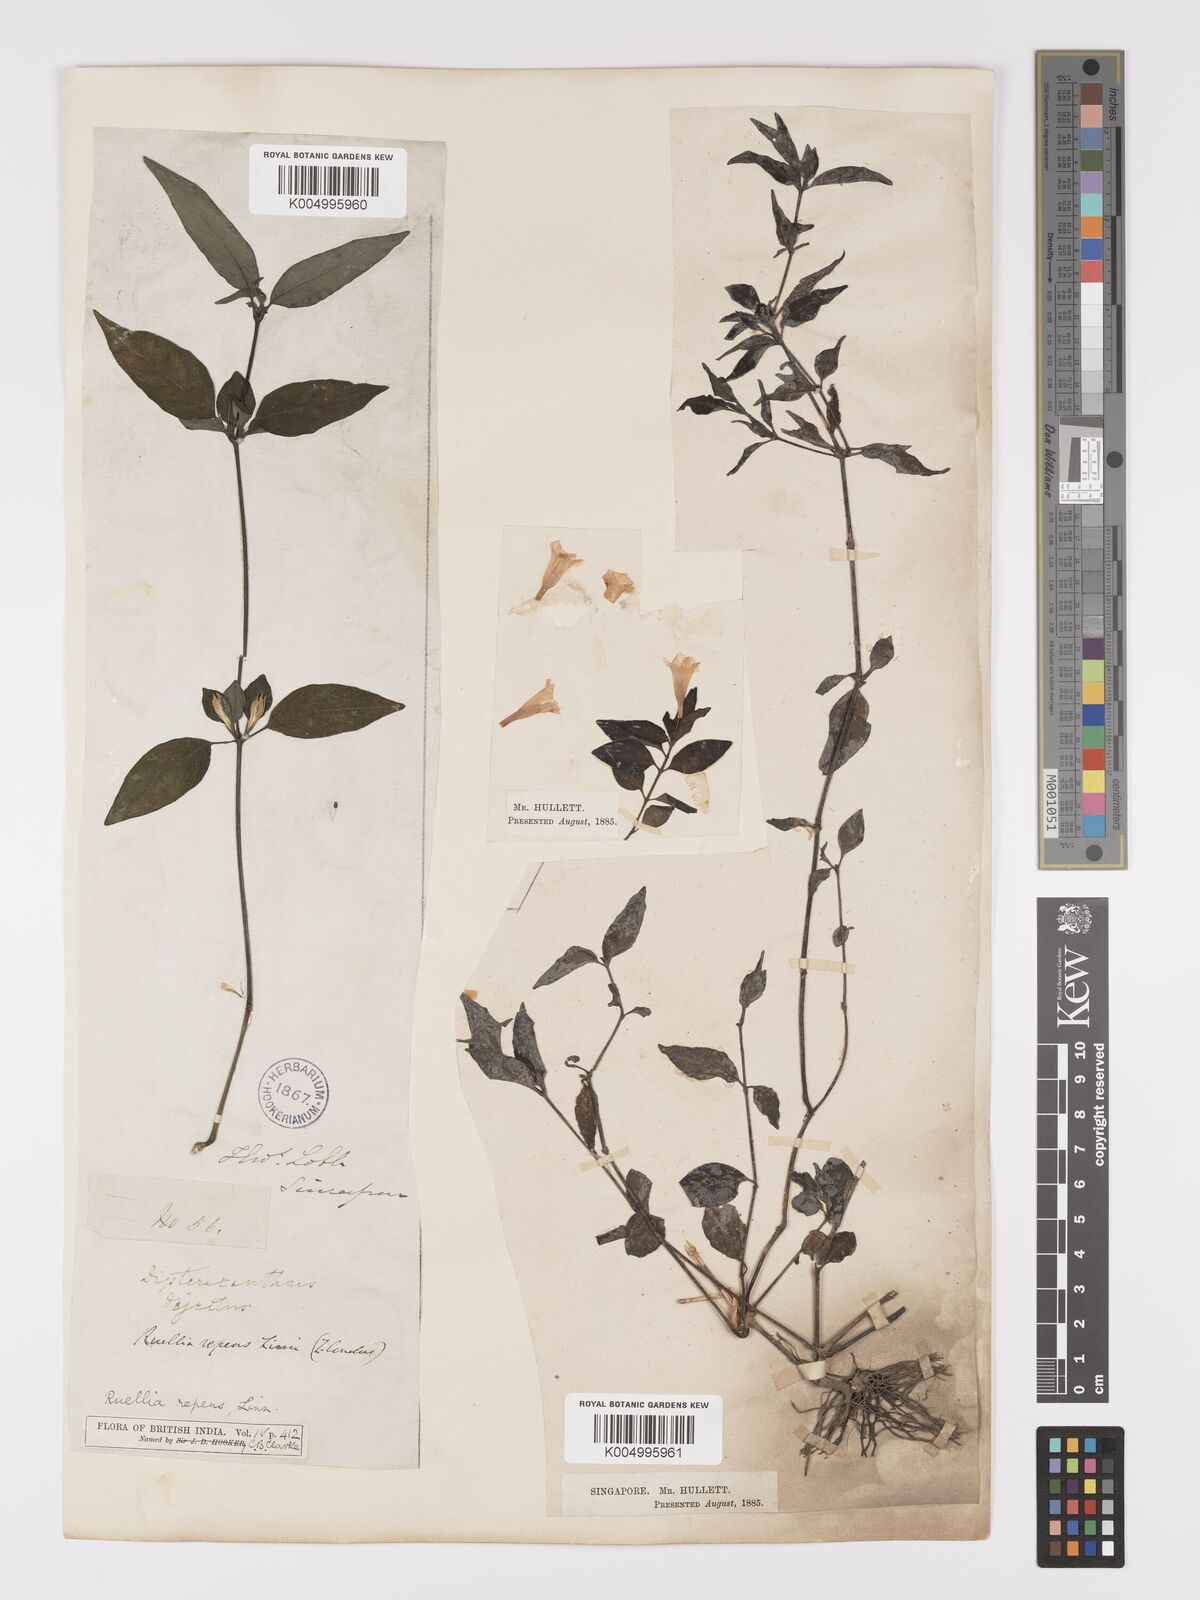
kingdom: Plantae
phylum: Tracheophyta
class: Magnoliopsida
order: Lamiales
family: Acanthaceae
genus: Ruellia
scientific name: Ruellia
